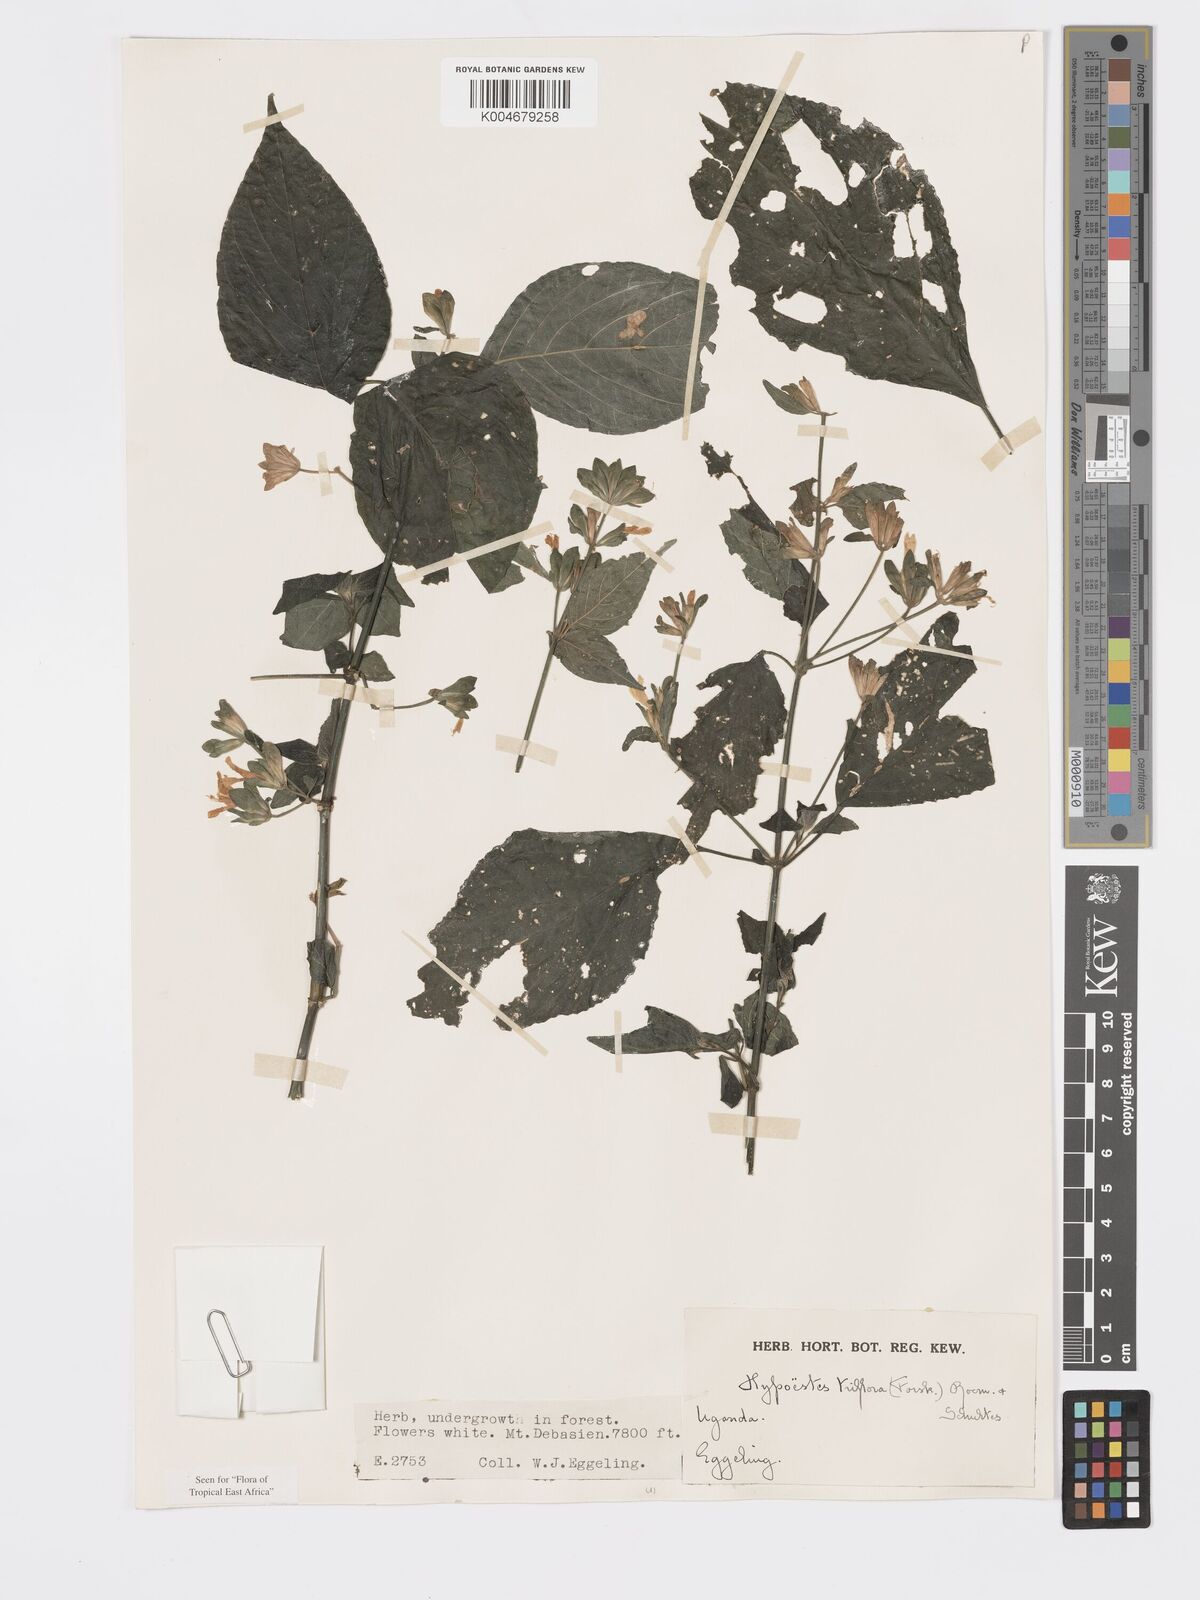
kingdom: Plantae
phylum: Tracheophyta
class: Magnoliopsida
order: Lamiales
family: Acanthaceae
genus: Hypoestes
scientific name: Hypoestes triflora
